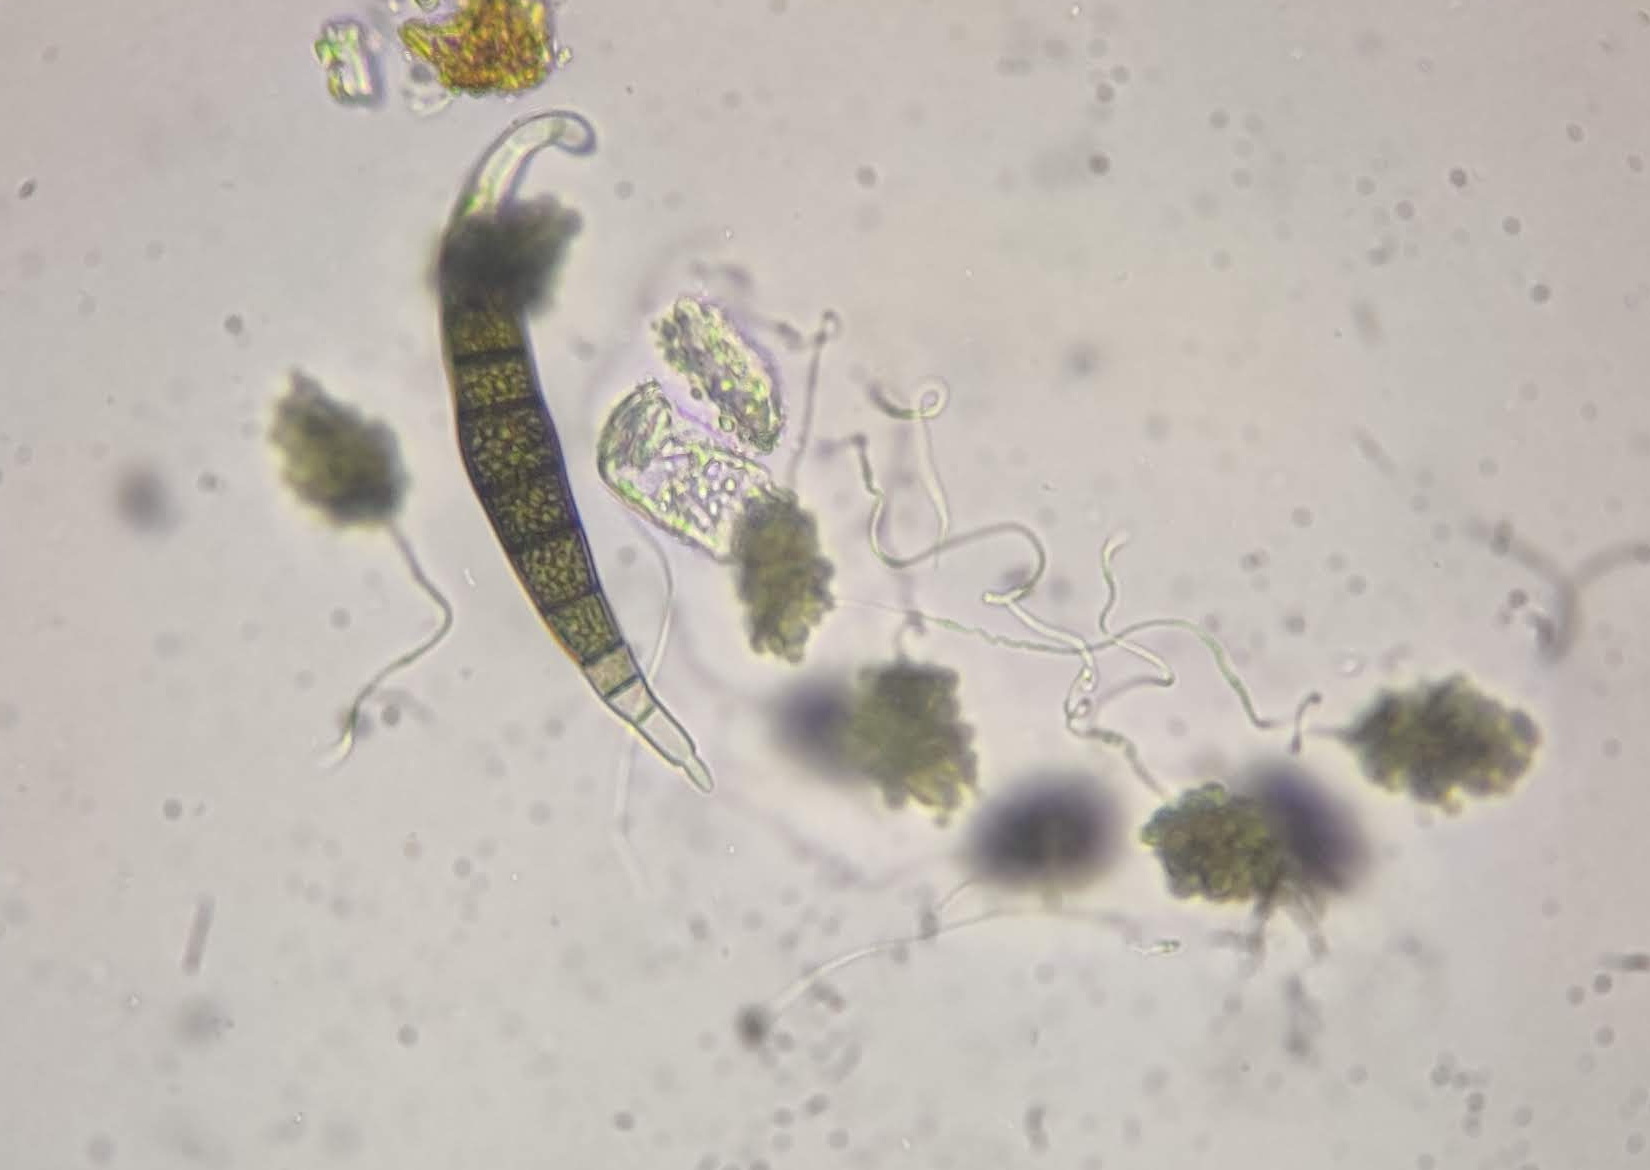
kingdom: Fungi
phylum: Ascomycota
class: Dothideomycetes
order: Pleosporales
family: Pleomassariaceae
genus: Asteromassaria
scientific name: Asteromassaria macrospora
